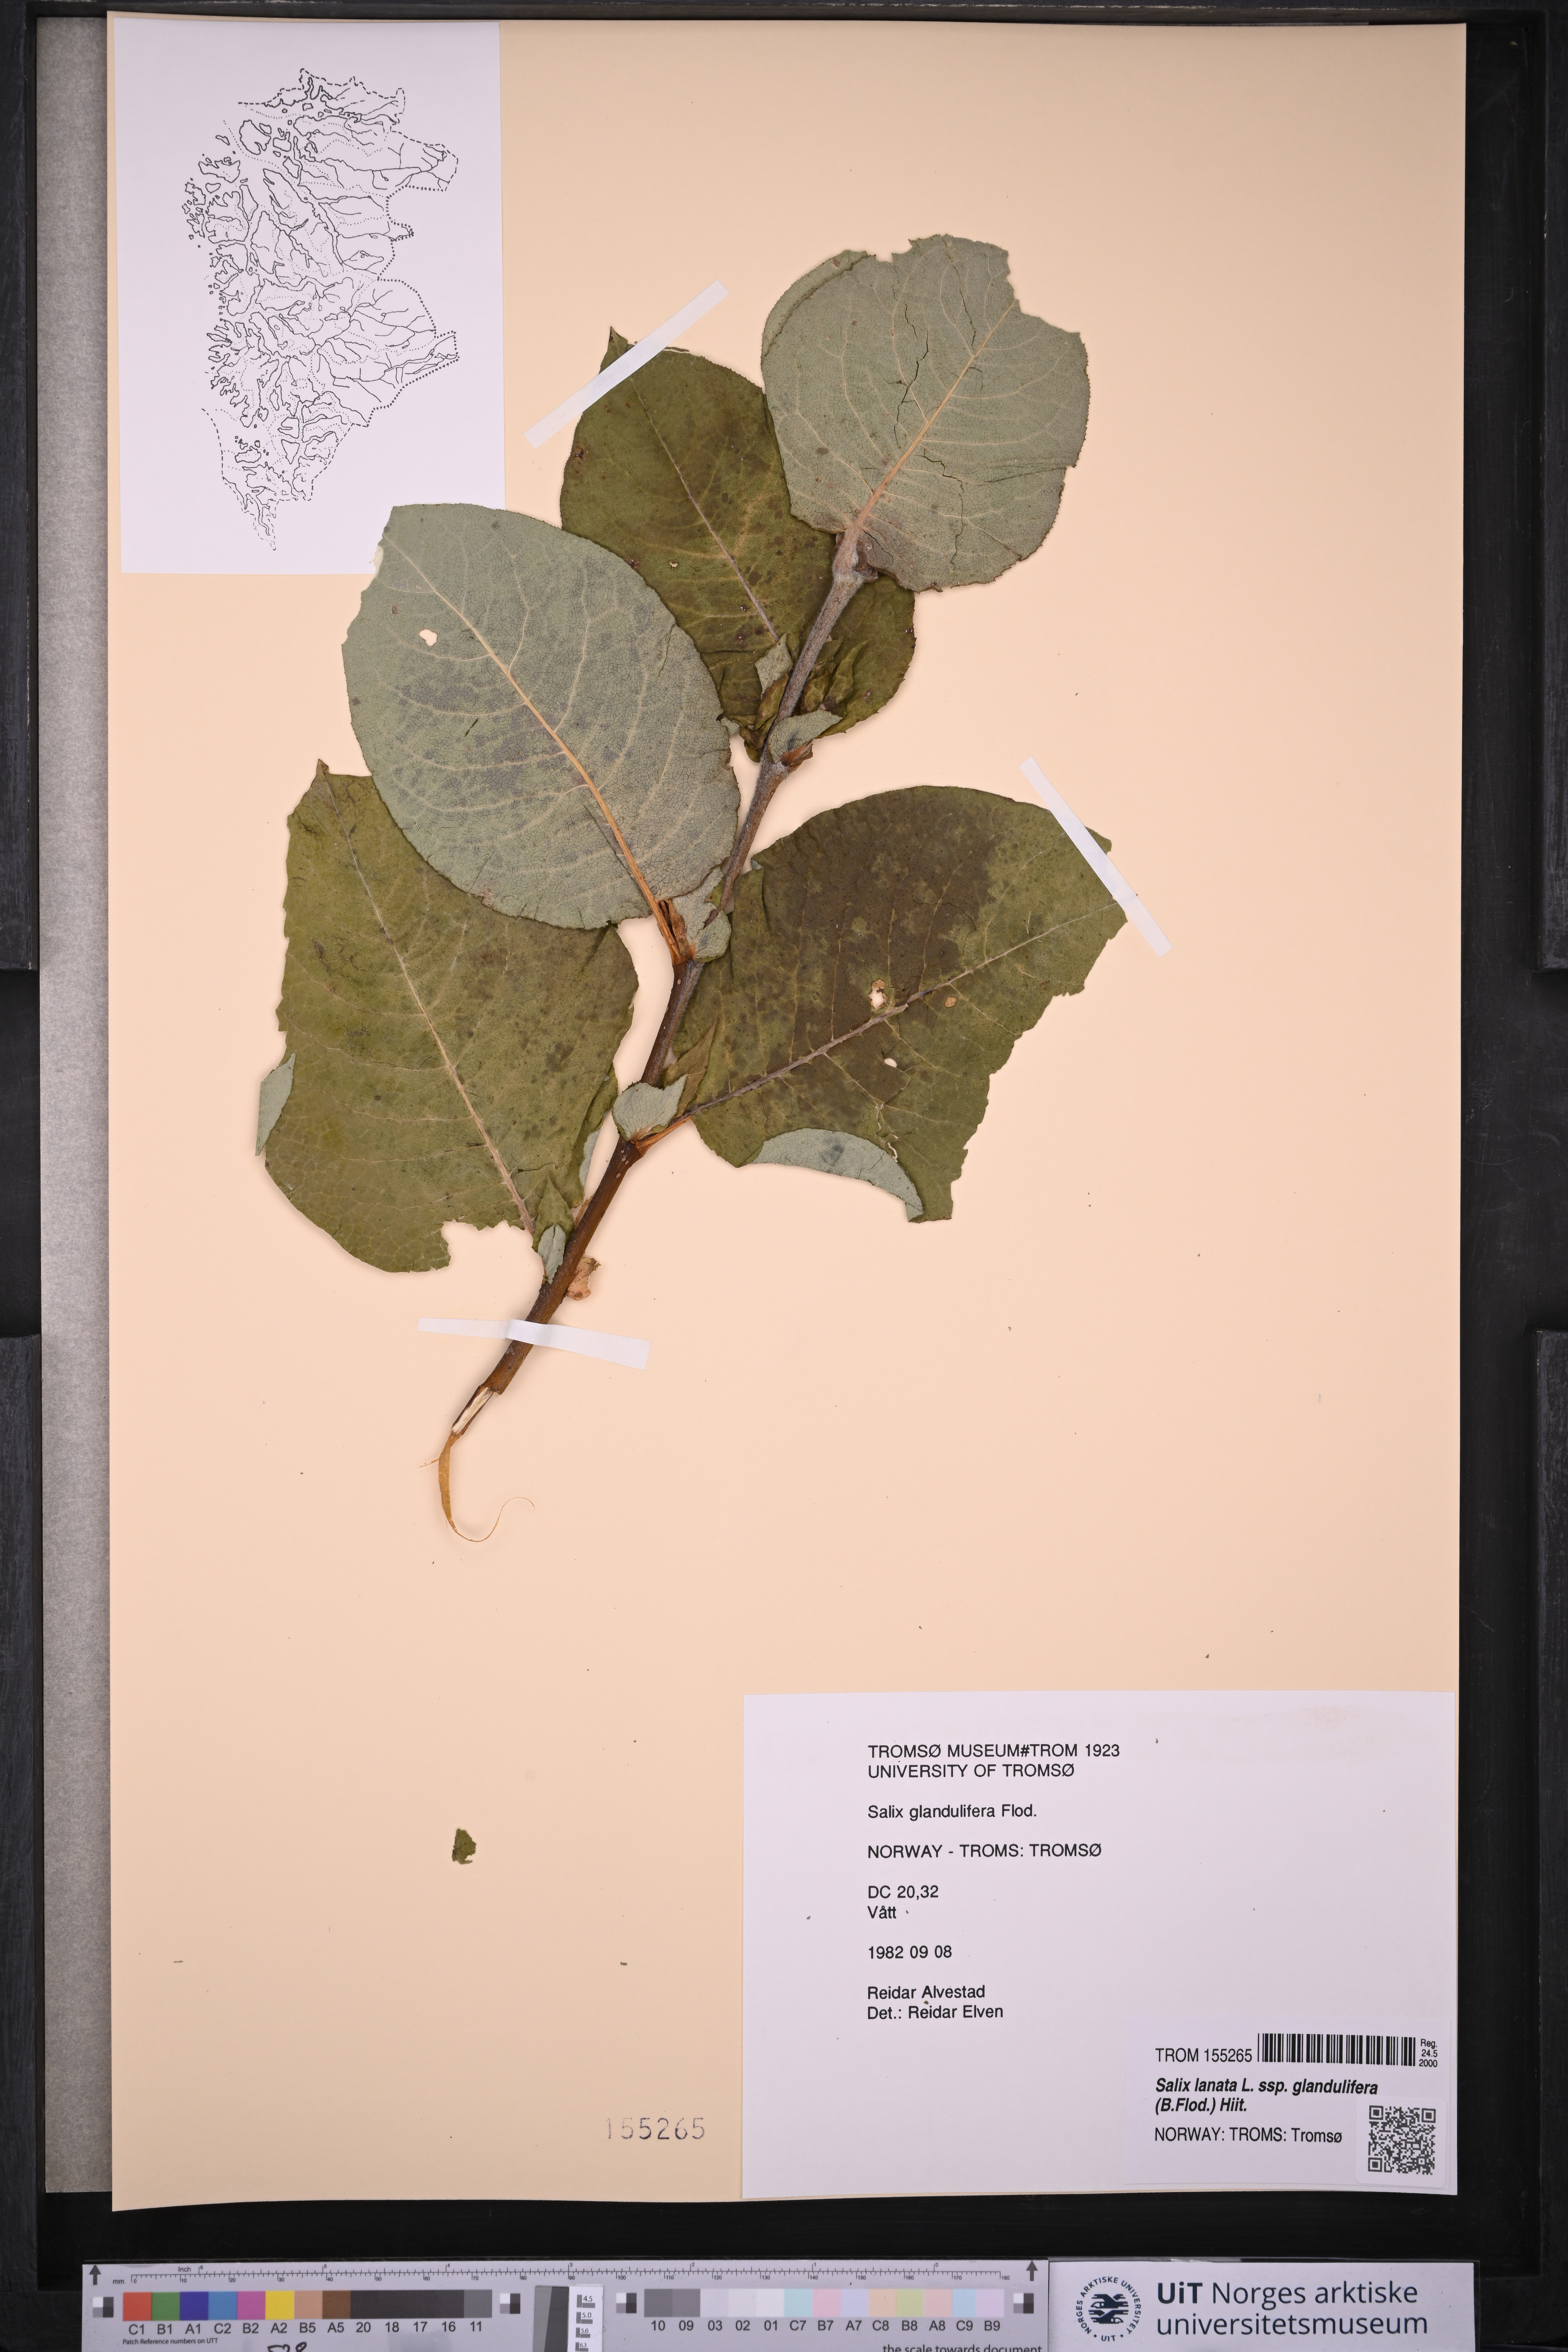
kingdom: Plantae
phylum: Tracheophyta
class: Magnoliopsida
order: Malpighiales
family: Salicaceae
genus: Salix
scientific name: Salix lanata
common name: Woolly willow
